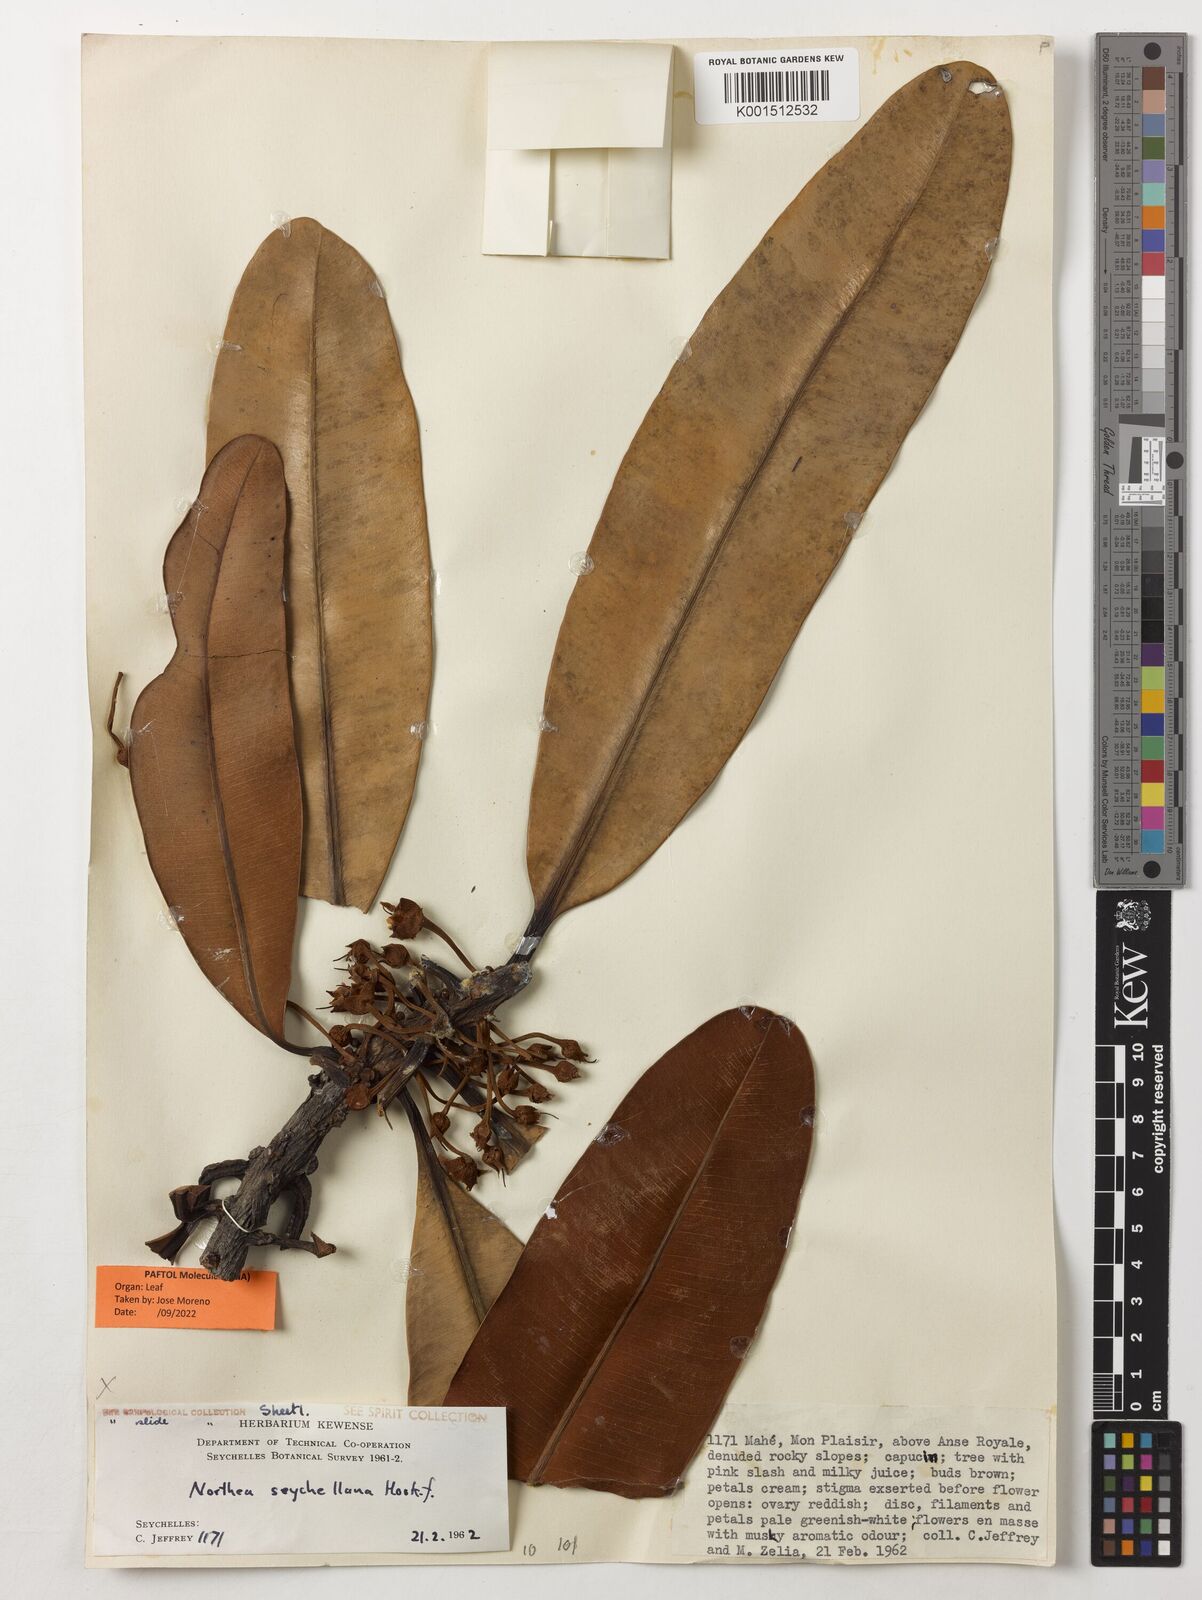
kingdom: Plantae
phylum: Tracheophyta
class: Magnoliopsida
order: Ericales
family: Sapotaceae
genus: Northia
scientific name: Northia seychellana
